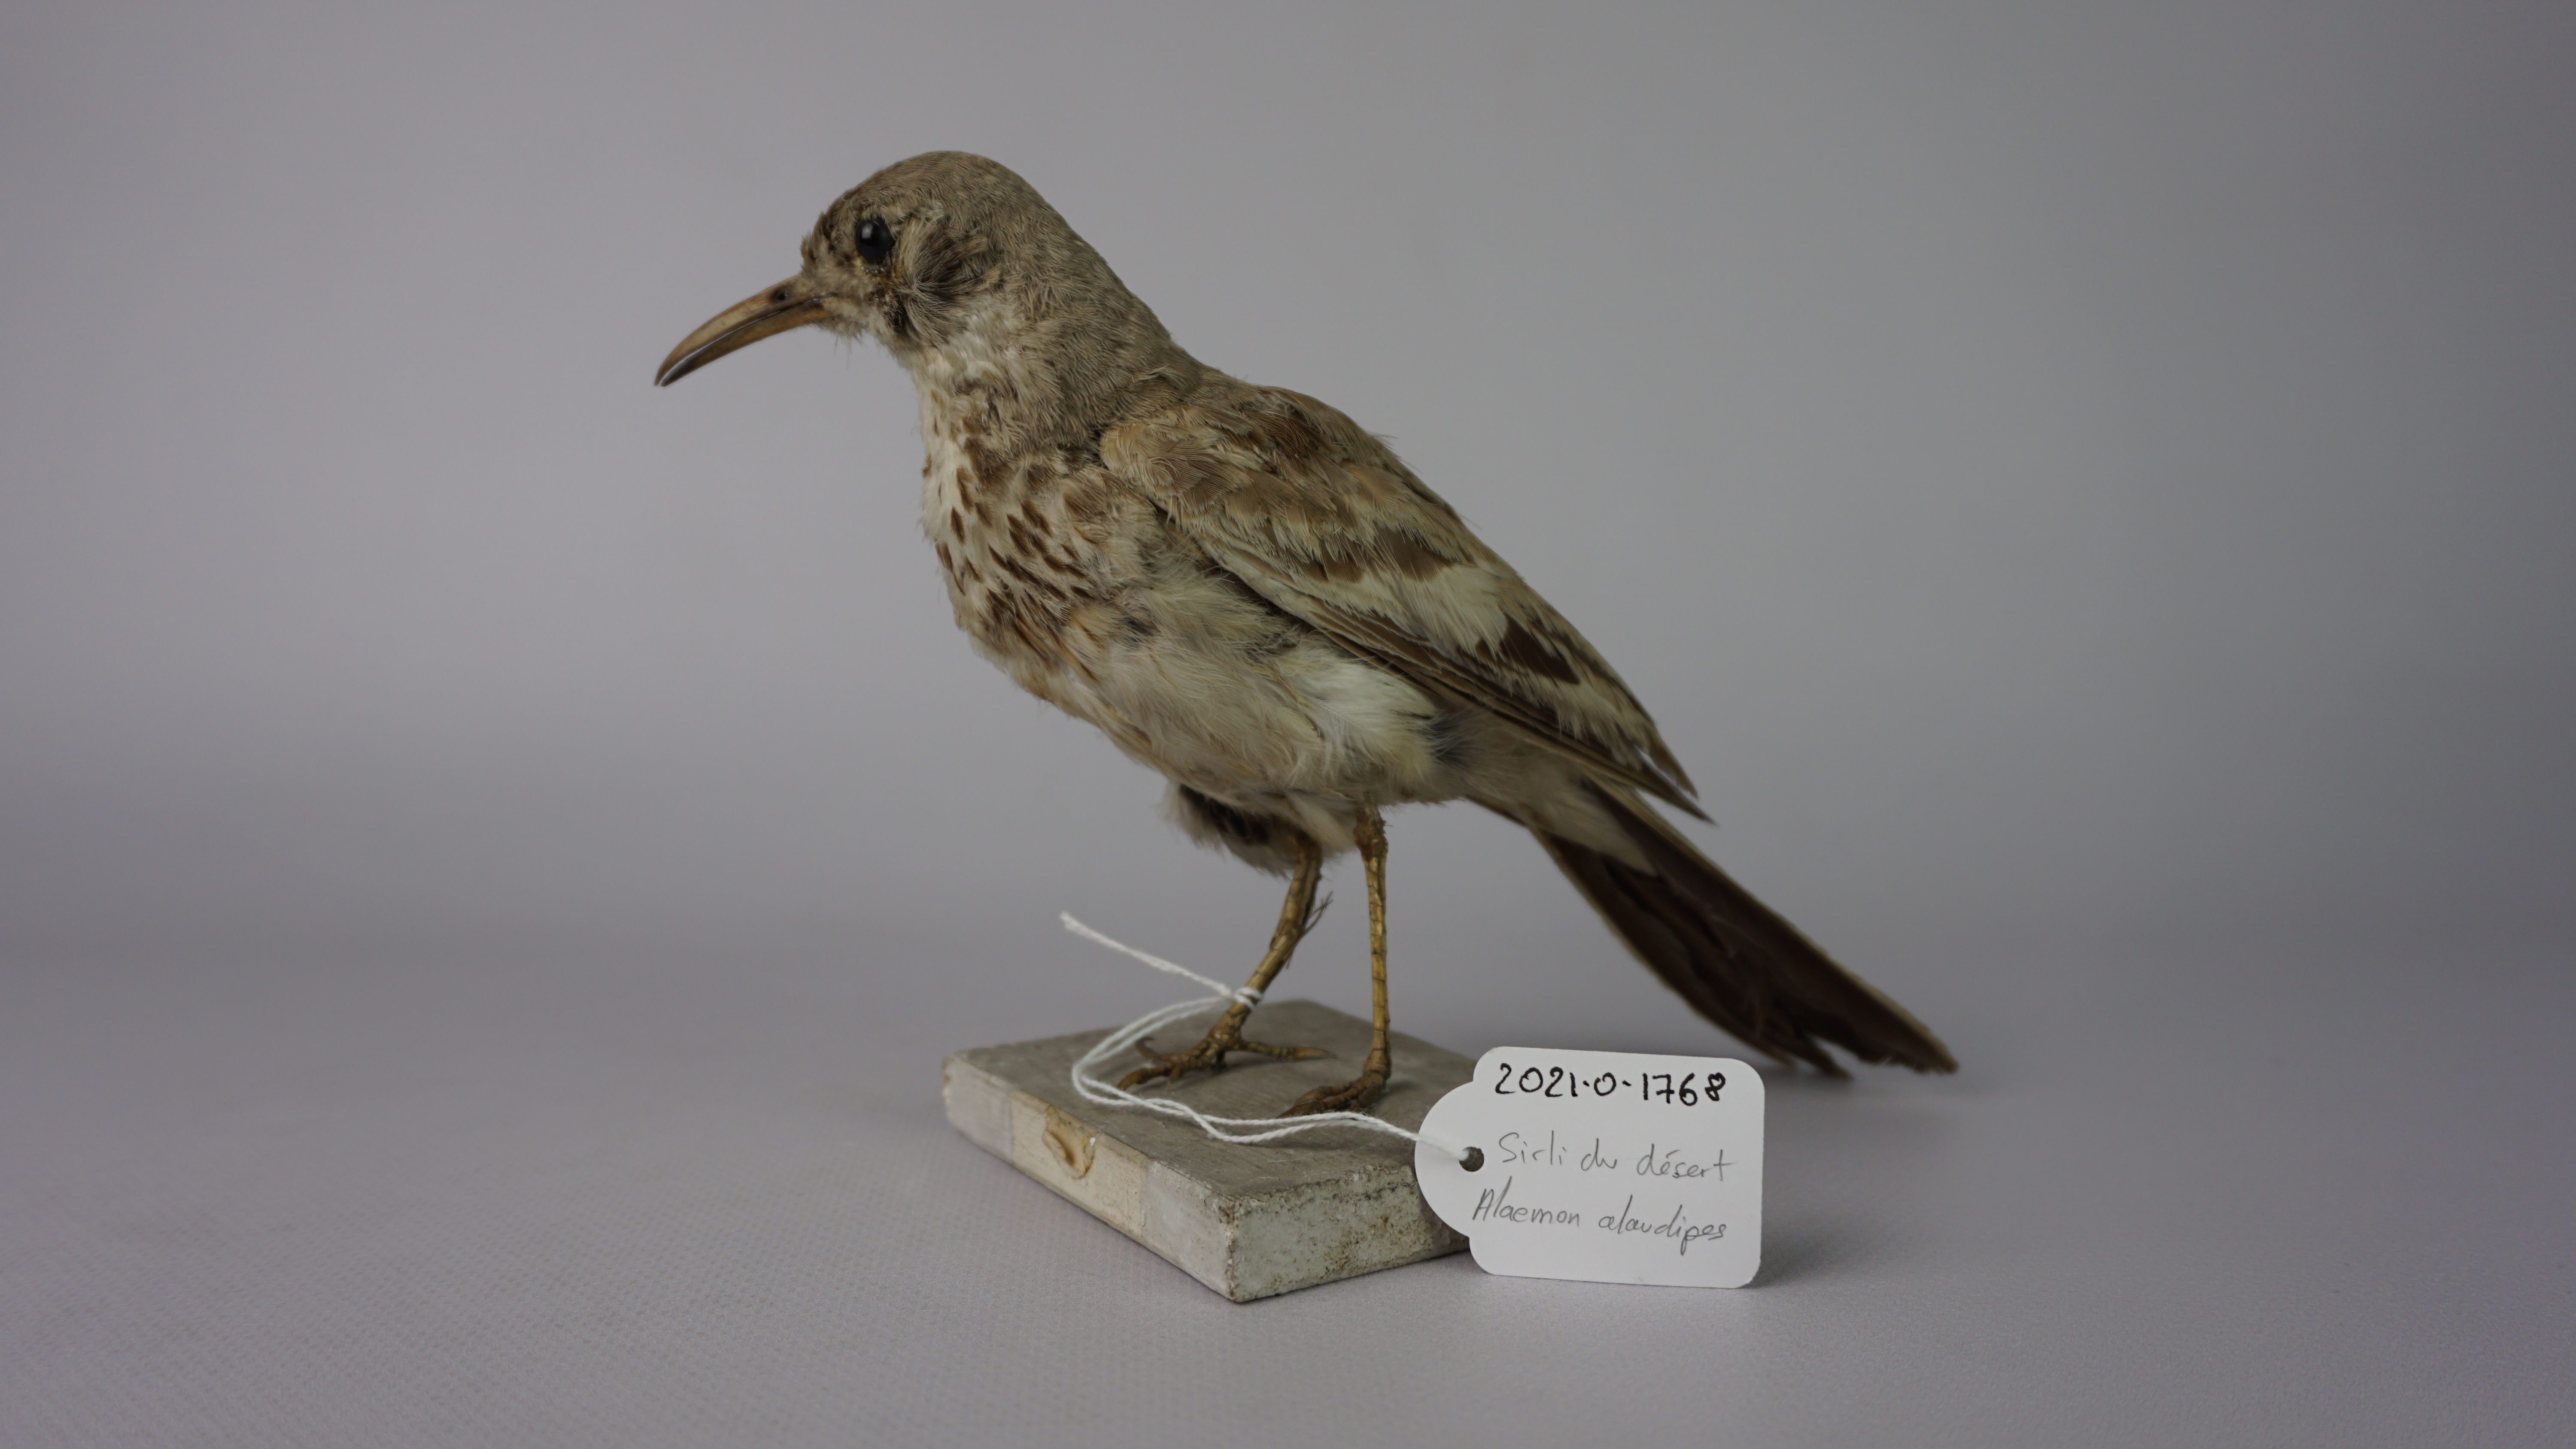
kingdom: Animalia
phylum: Chordata
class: Aves
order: Passeriformes
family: Alaudidae
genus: Alaemon
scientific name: Alaemon alaudipes
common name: Greater hoopoe-lark
